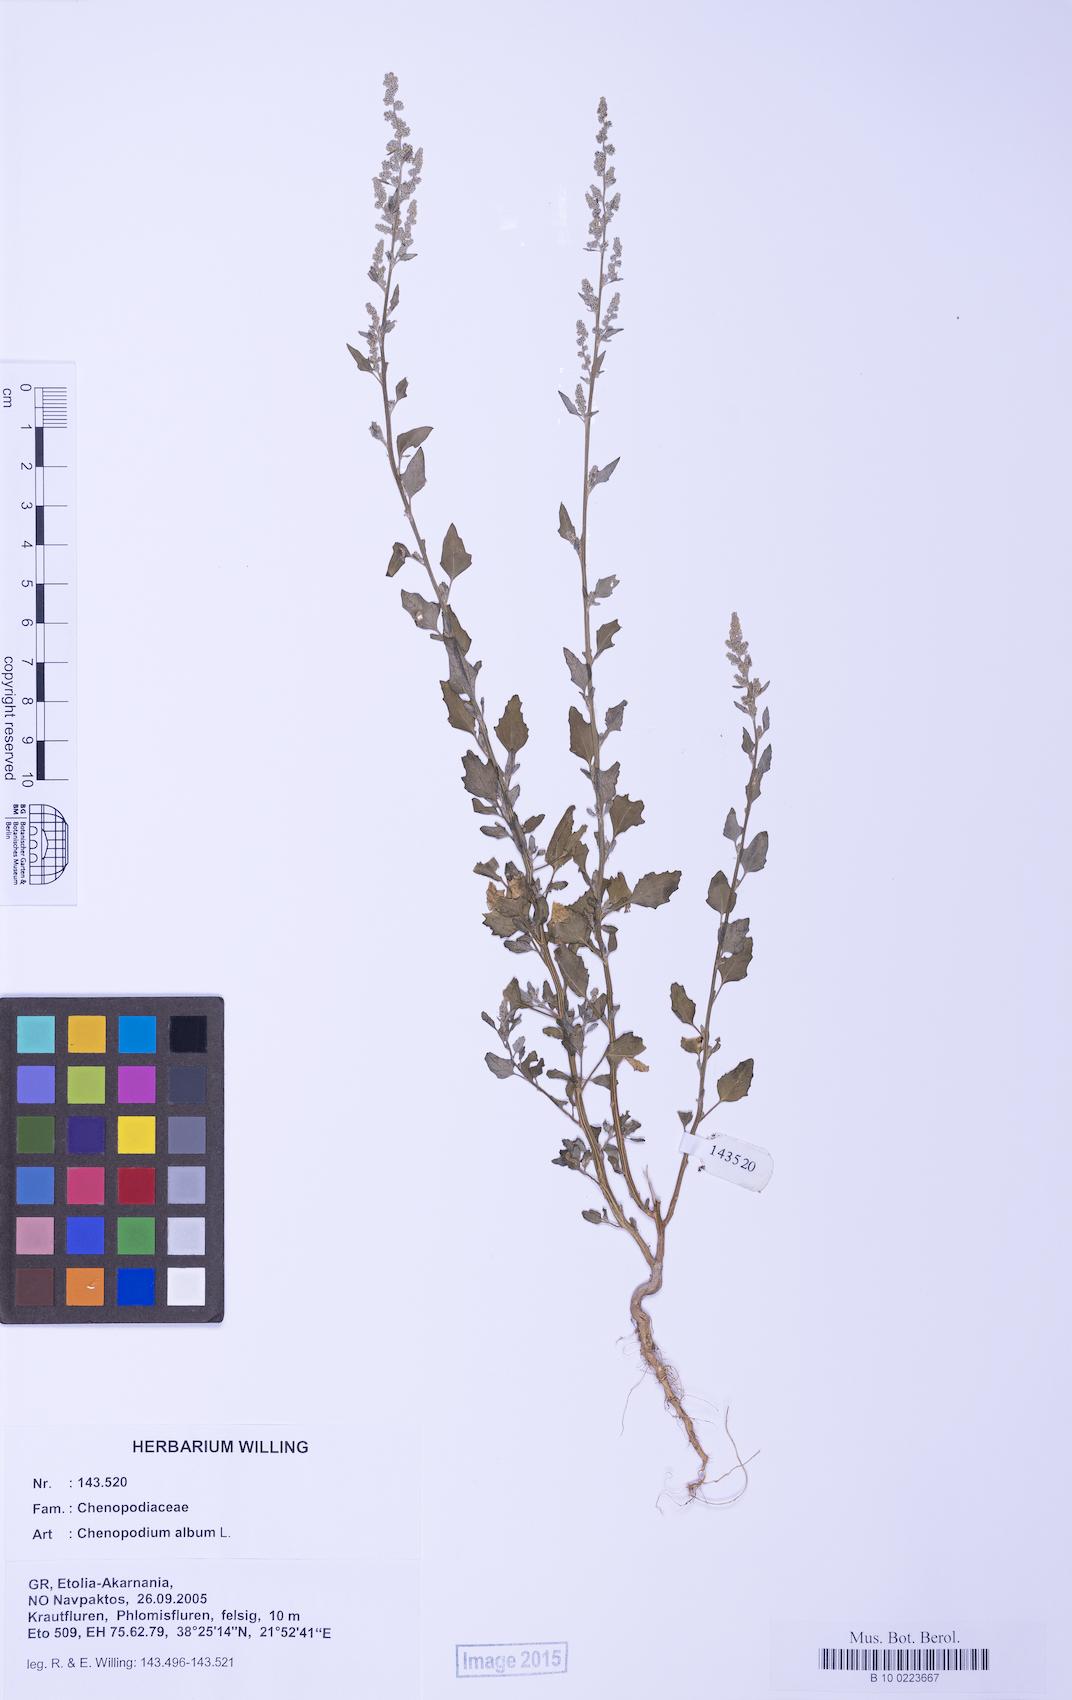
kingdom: Plantae
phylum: Tracheophyta
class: Magnoliopsida
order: Caryophyllales
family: Amaranthaceae
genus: Chenopodium
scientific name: Chenopodium album
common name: Fat-hen
